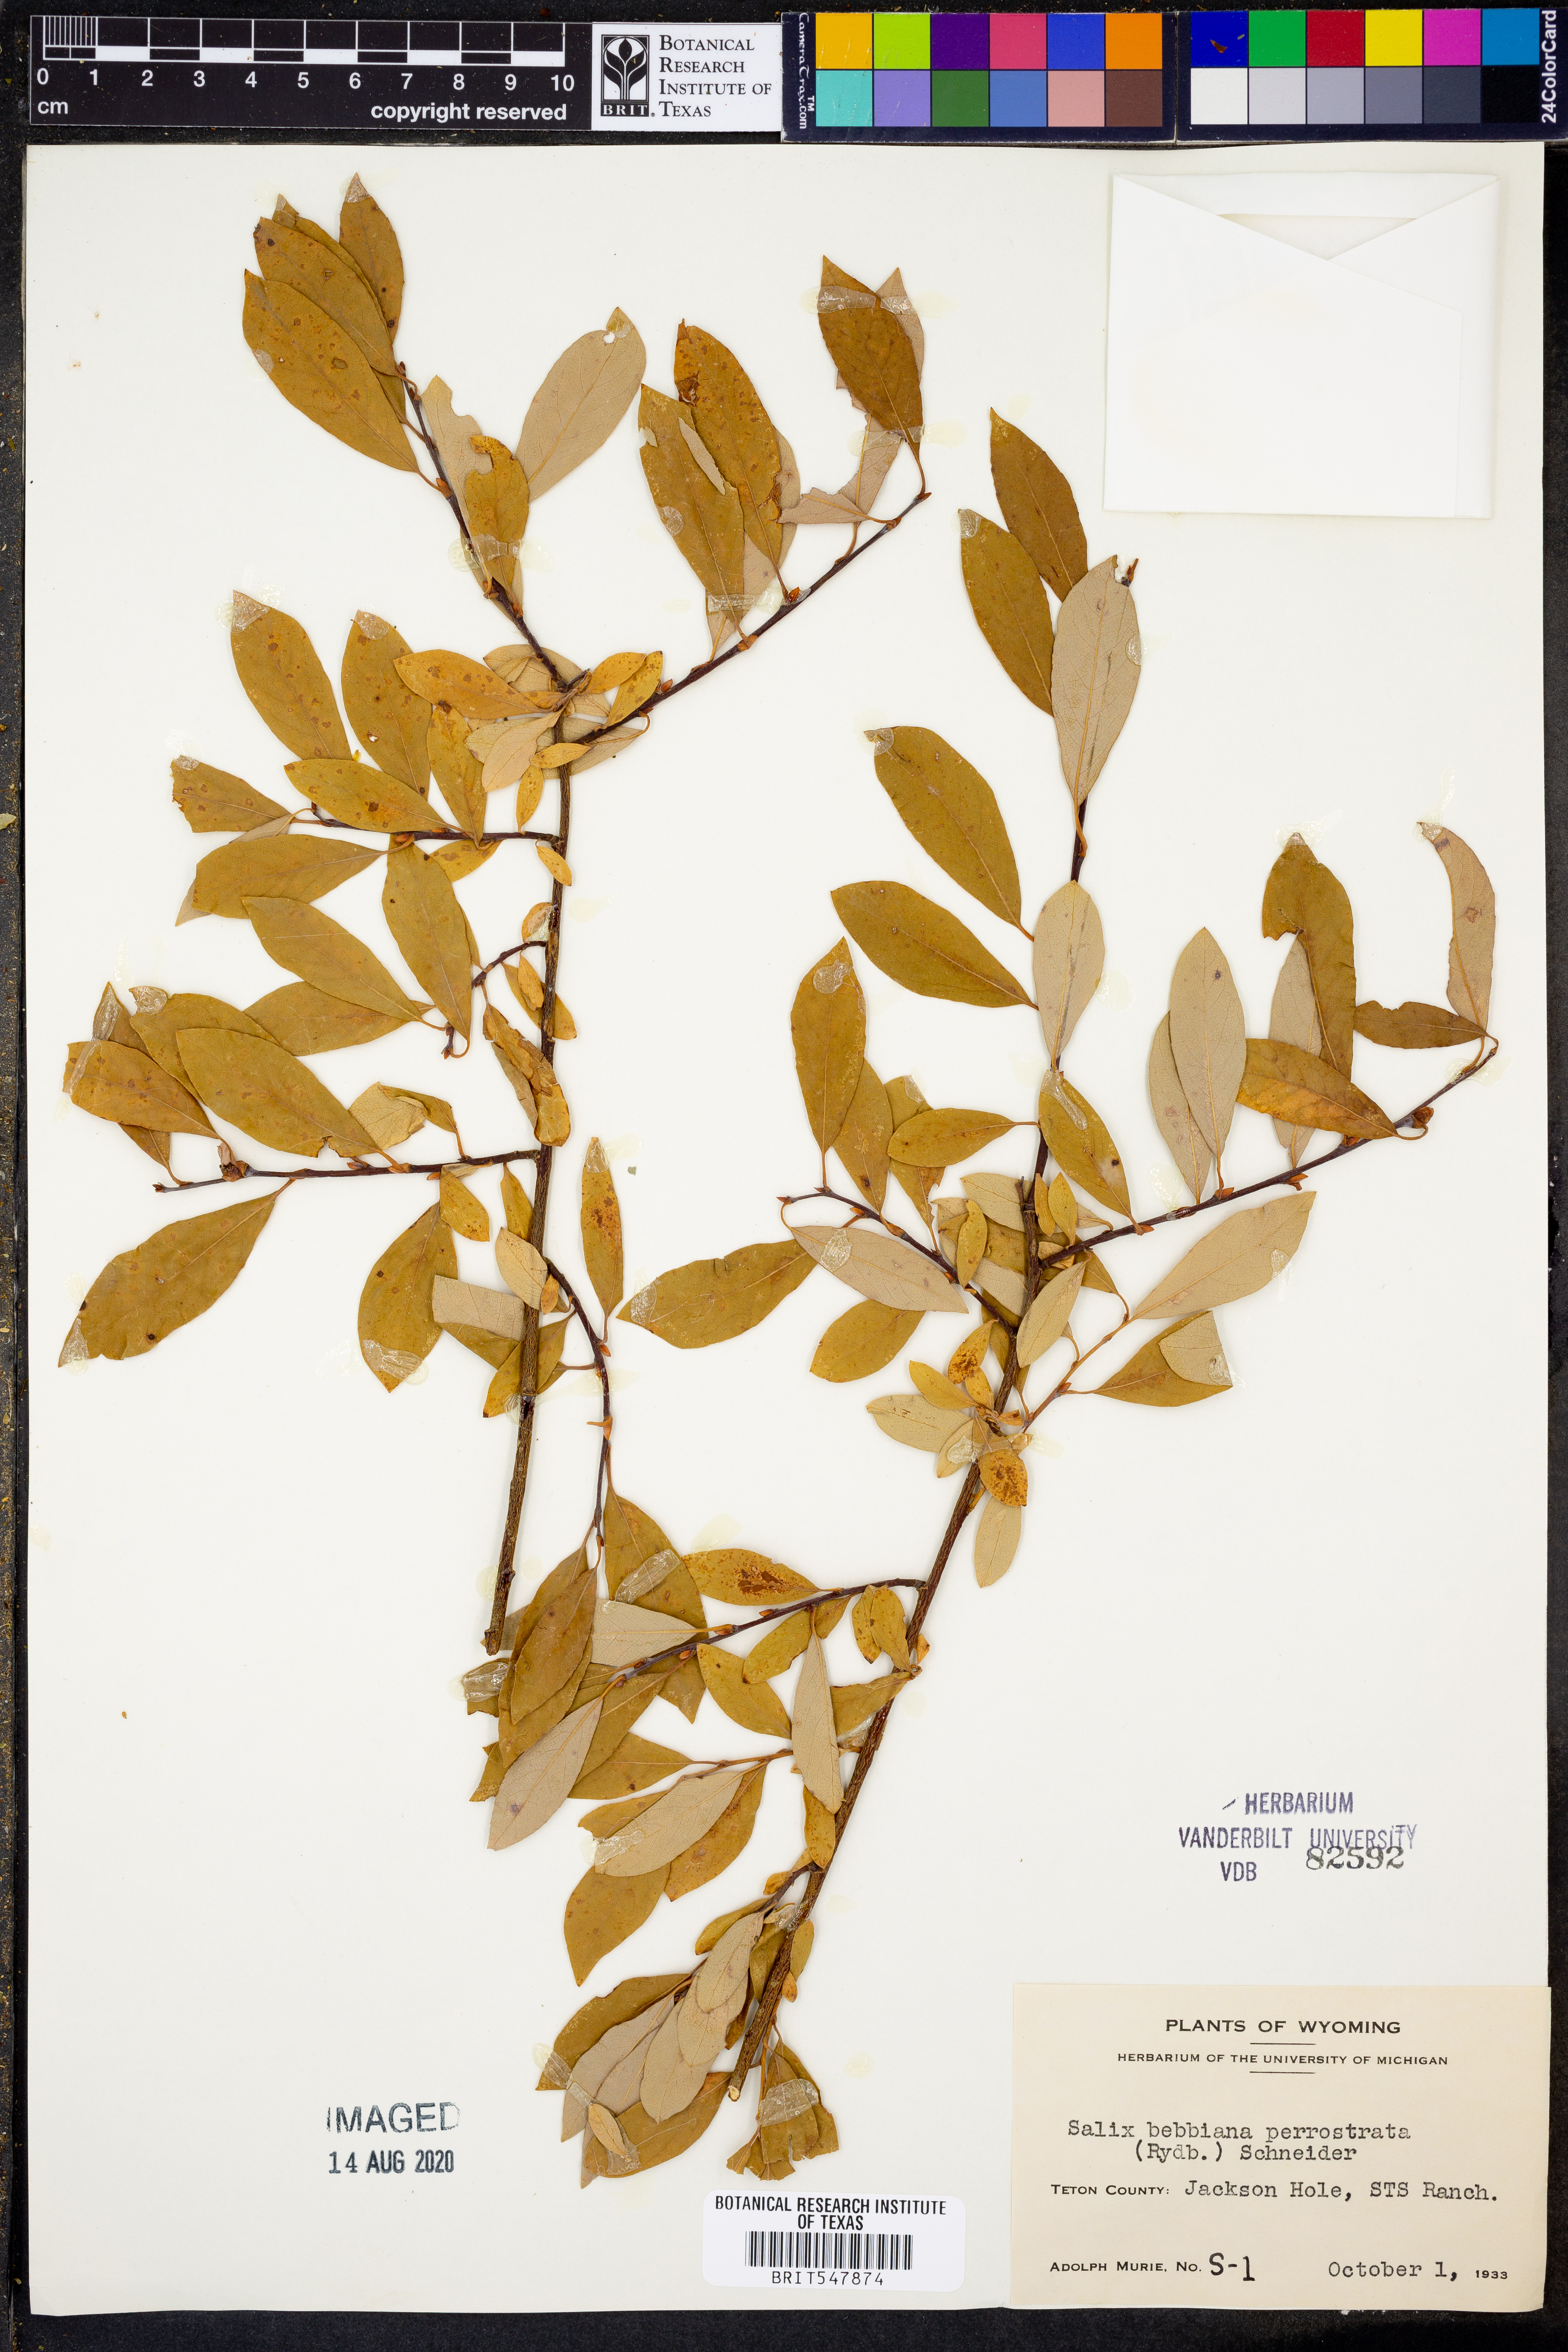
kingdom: Plantae
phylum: Tracheophyta
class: Magnoliopsida
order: Malpighiales
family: Salicaceae
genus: Salix
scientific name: Salix bebbiana
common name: Bebb's willow
